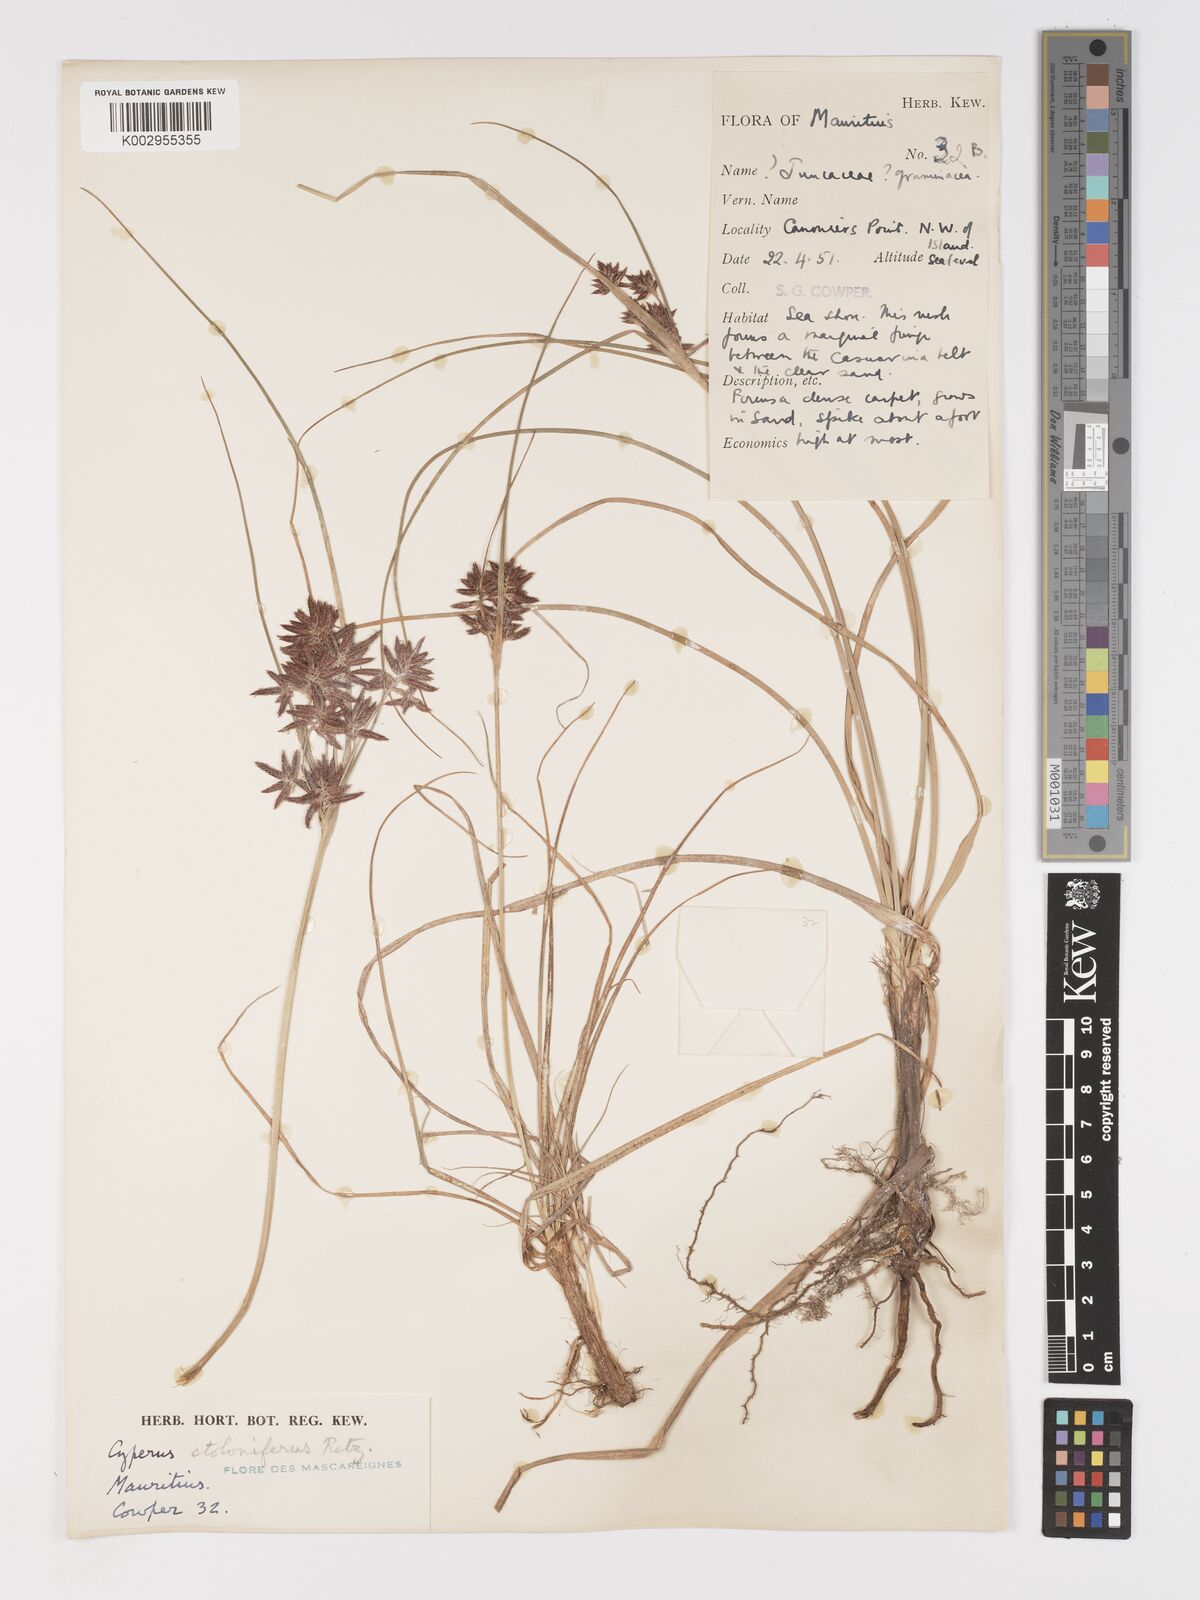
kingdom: Plantae
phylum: Tracheophyta
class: Liliopsida
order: Poales
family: Cyperaceae
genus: Cyperus
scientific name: Cyperus bulbosus
